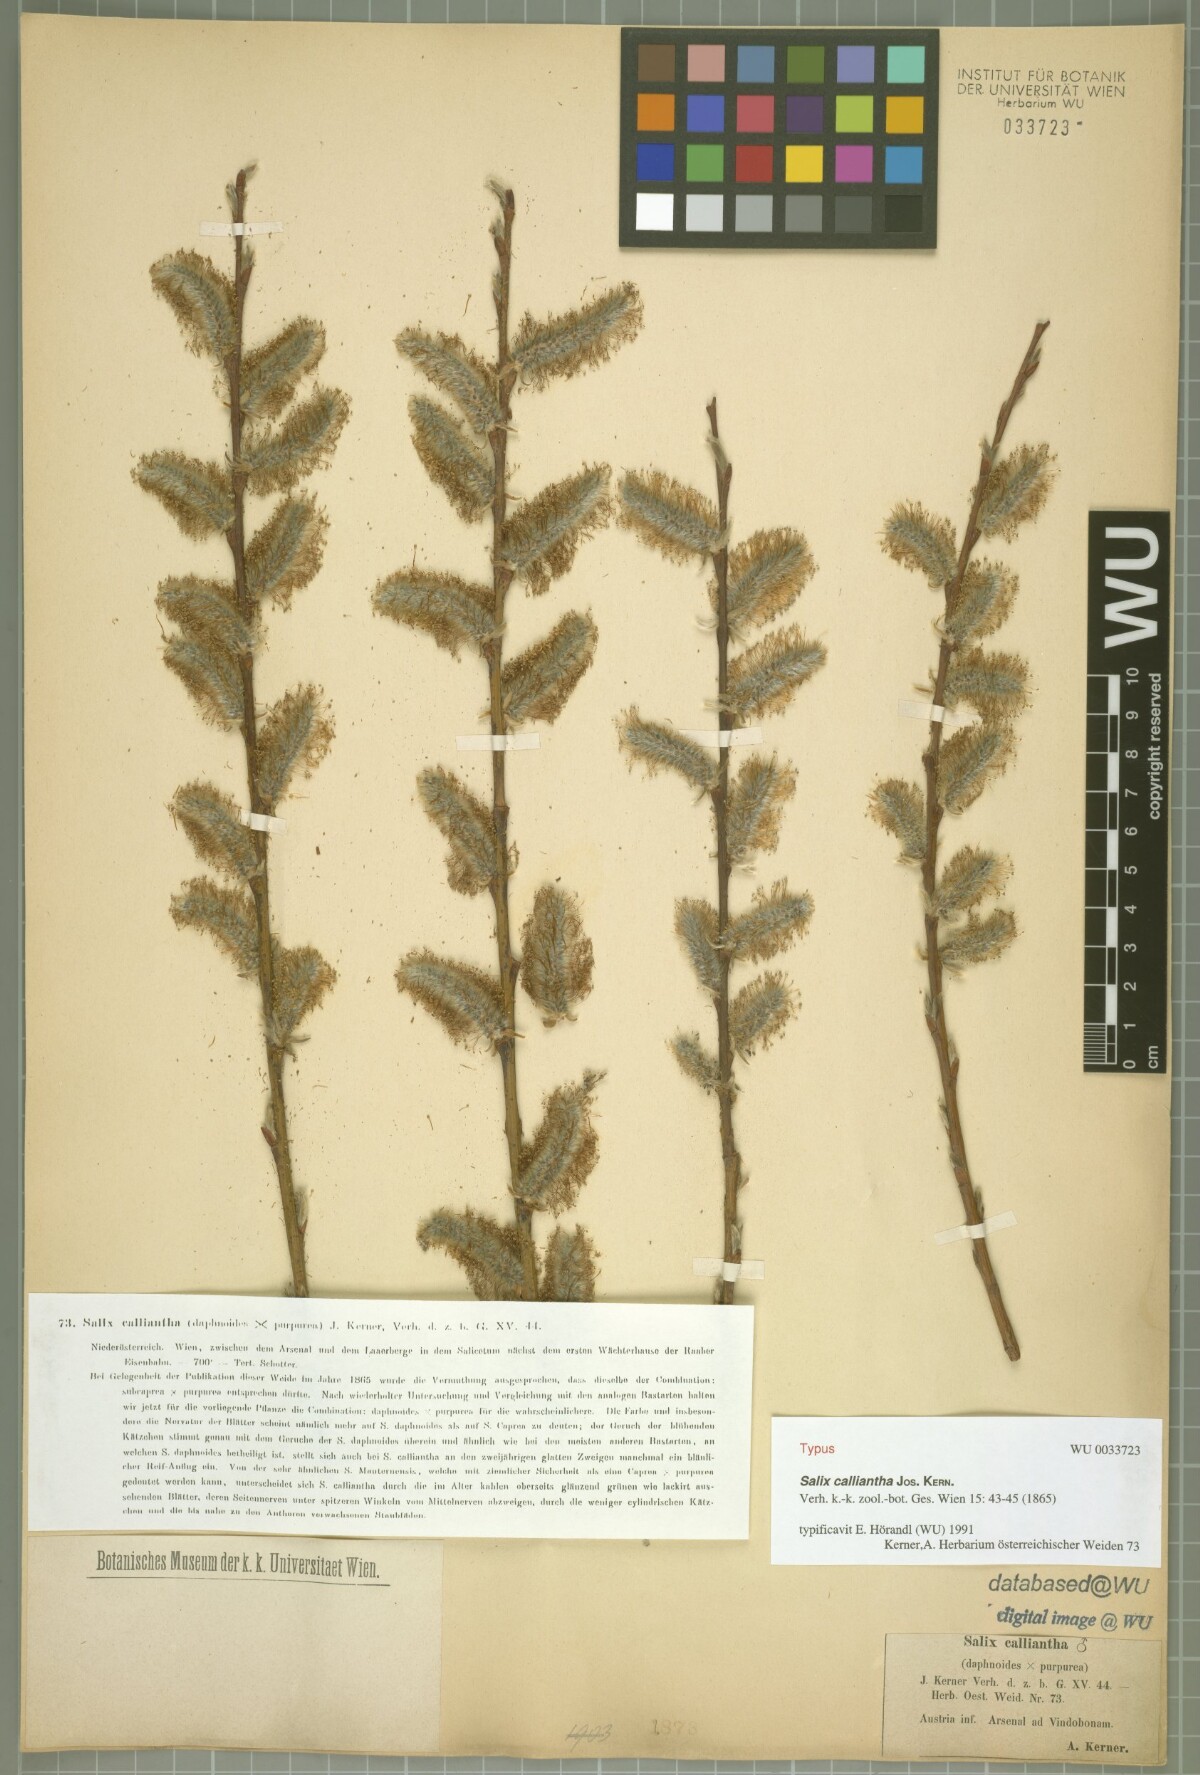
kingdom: Plantae
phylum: Tracheophyta
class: Magnoliopsida
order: Malpighiales
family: Salicaceae
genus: Salix
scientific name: Salix calliantha
